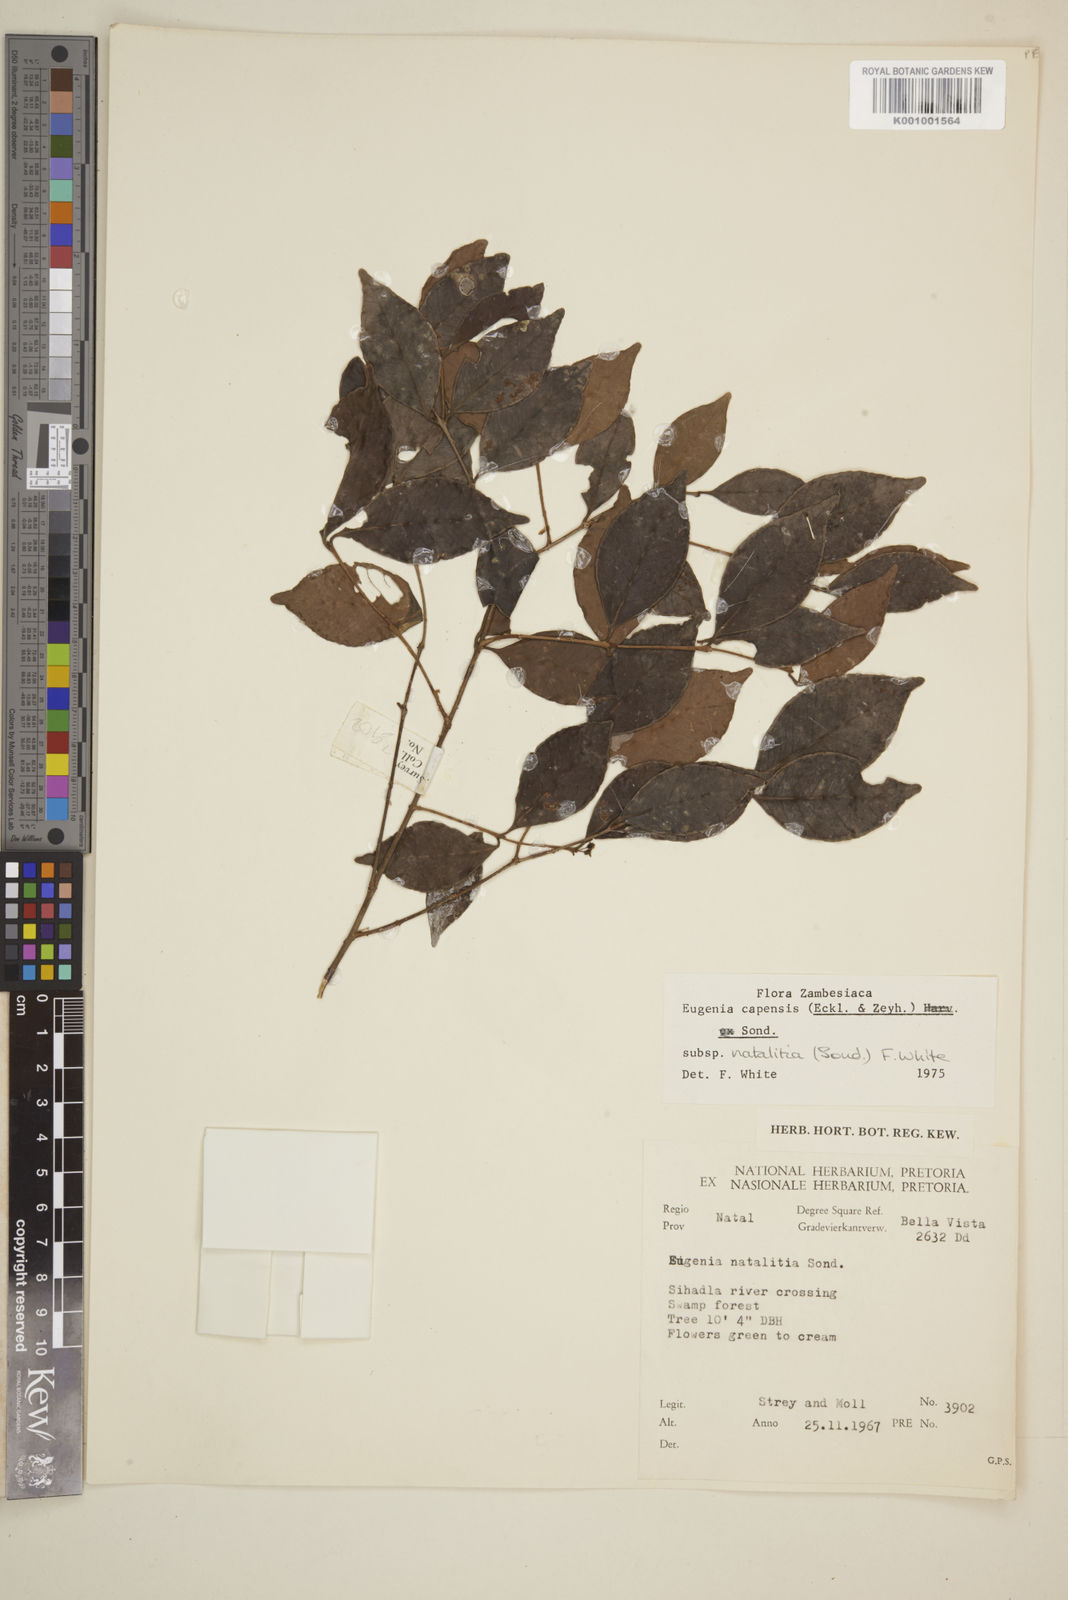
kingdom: Plantae
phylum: Tracheophyta
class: Magnoliopsida
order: Myrtales
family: Myrtaceae
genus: Eugenia
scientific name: Eugenia natalitia
